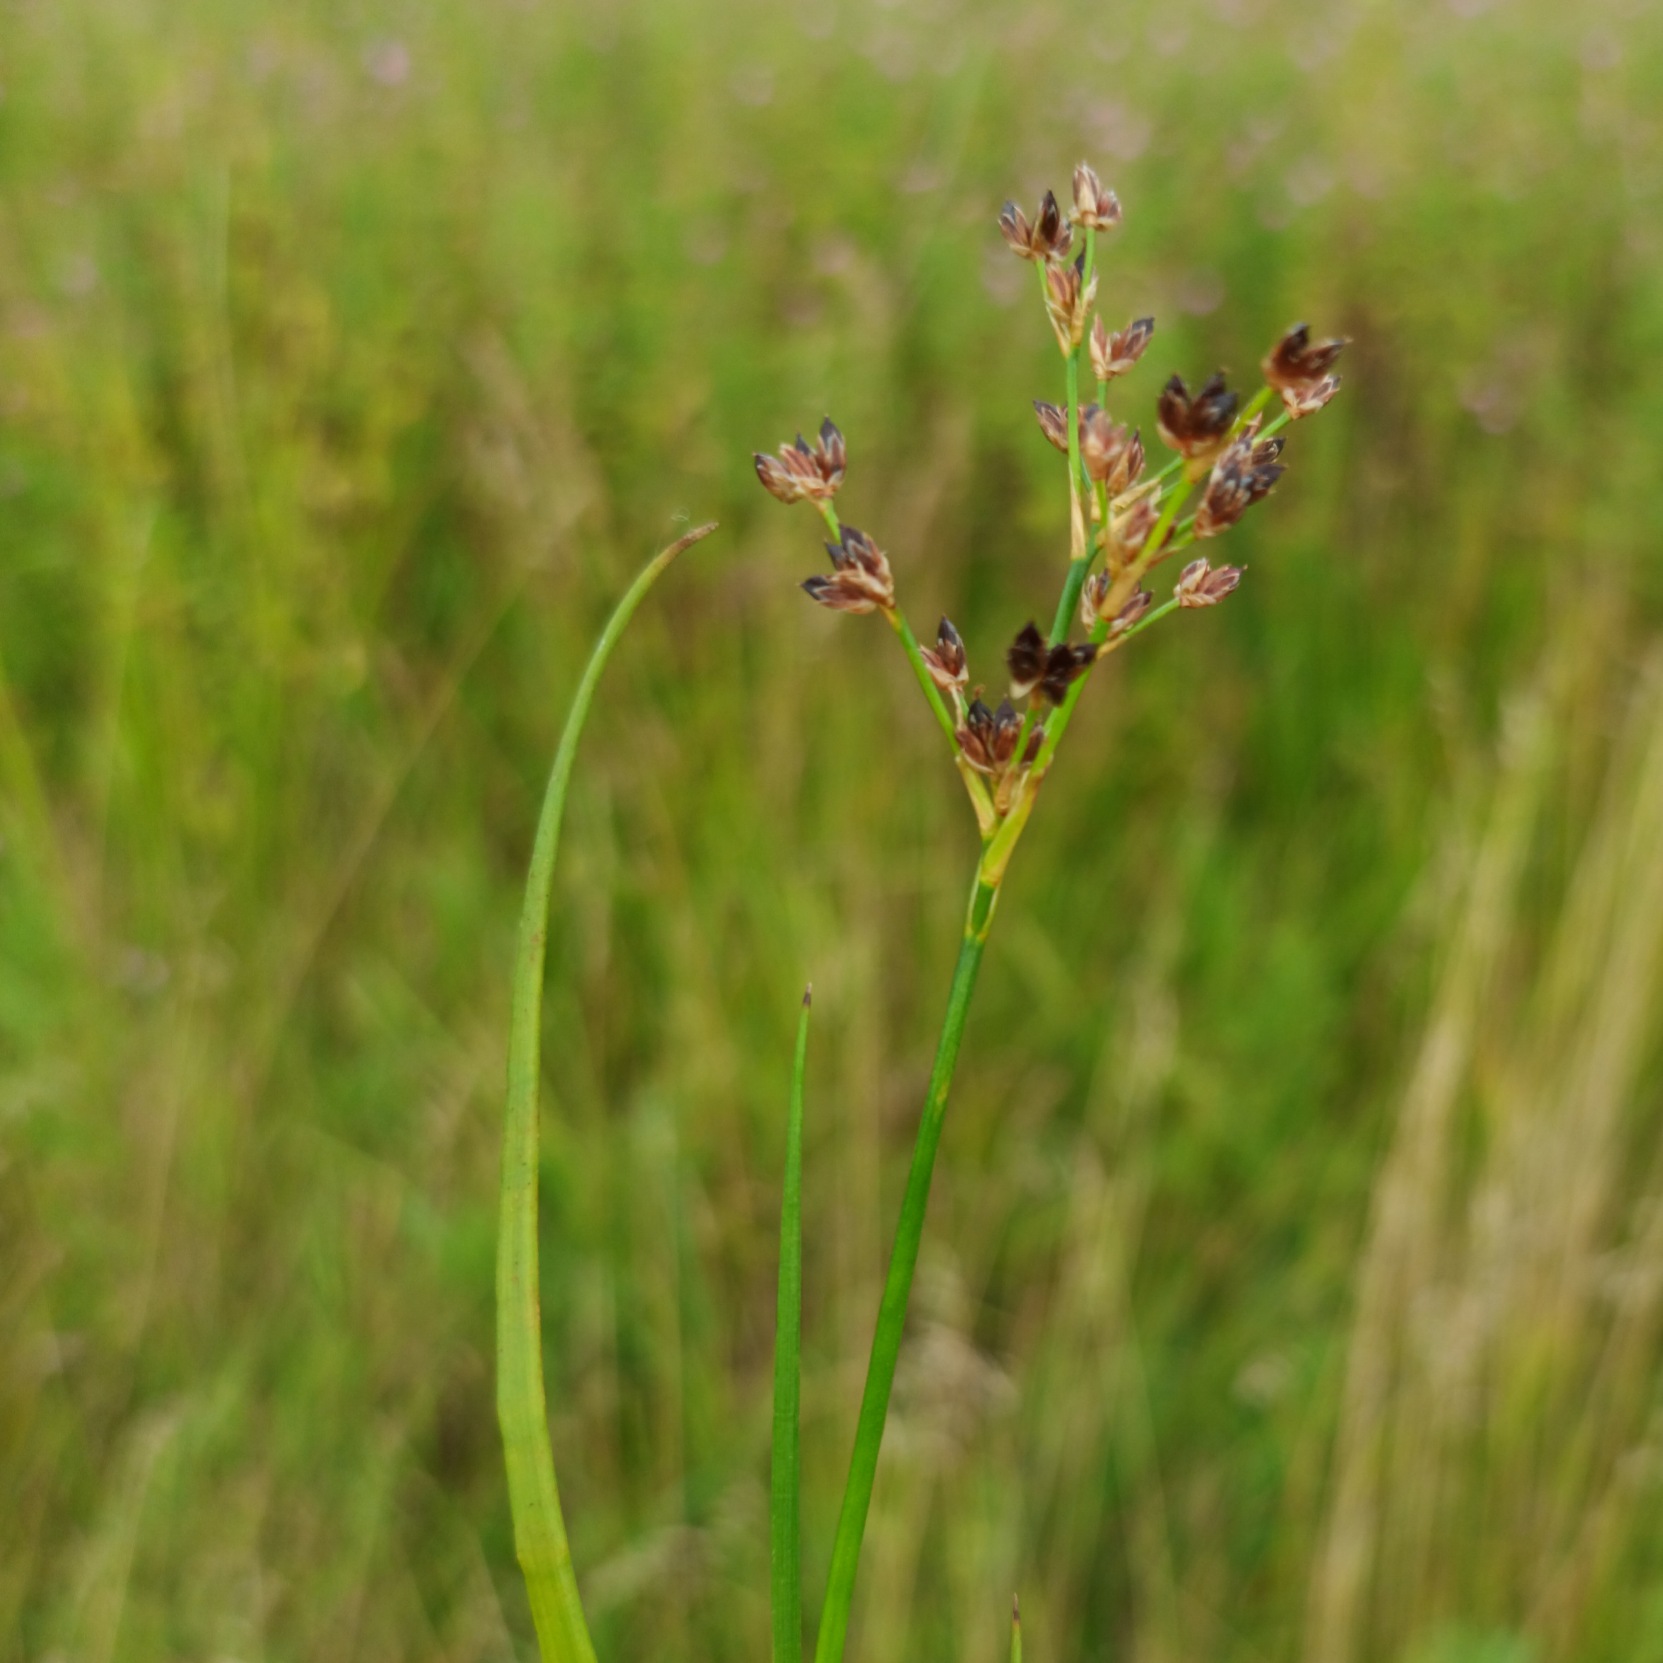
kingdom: Plantae
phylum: Tracheophyta
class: Liliopsida
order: Poales
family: Juncaceae
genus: Juncus
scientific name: Juncus articulatus
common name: Glanskapslet siv
